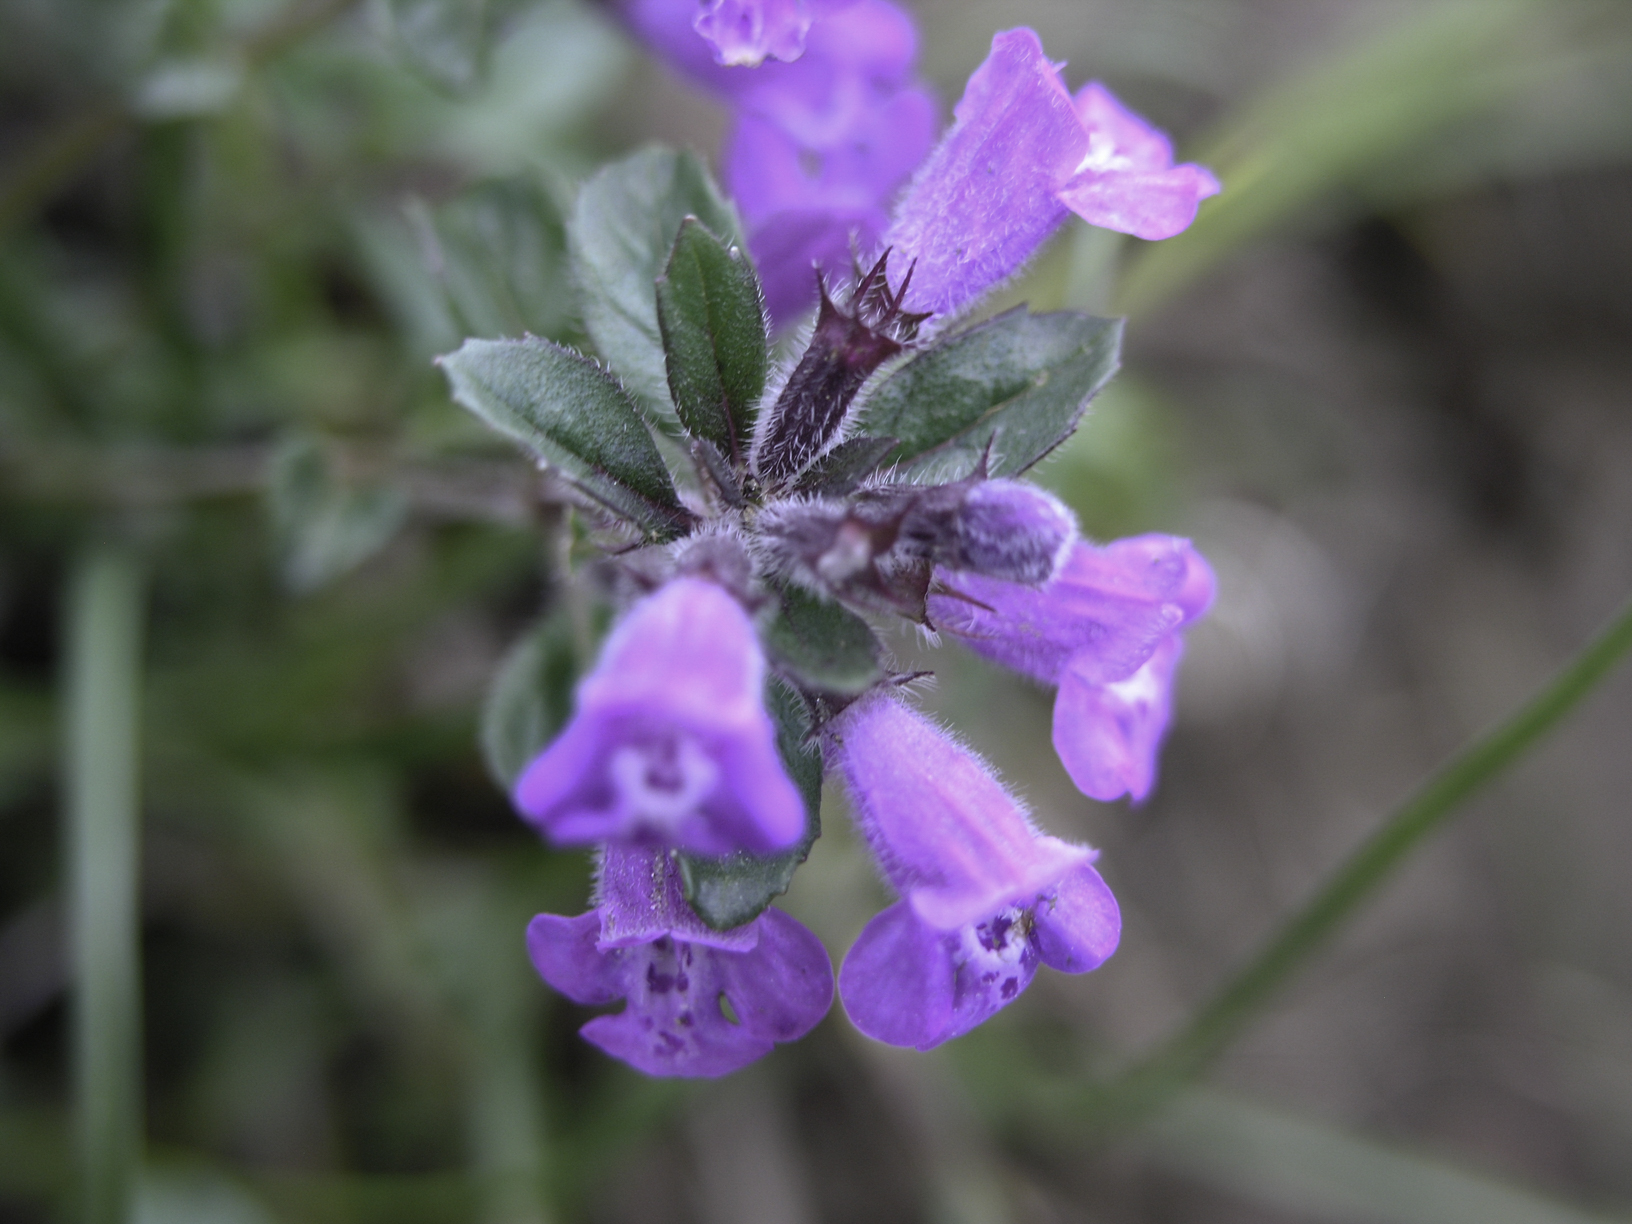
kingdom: Plantae
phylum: Tracheophyta
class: Magnoliopsida
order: Lamiales
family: Lamiaceae
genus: Clinopodium
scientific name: Clinopodium alpinum
